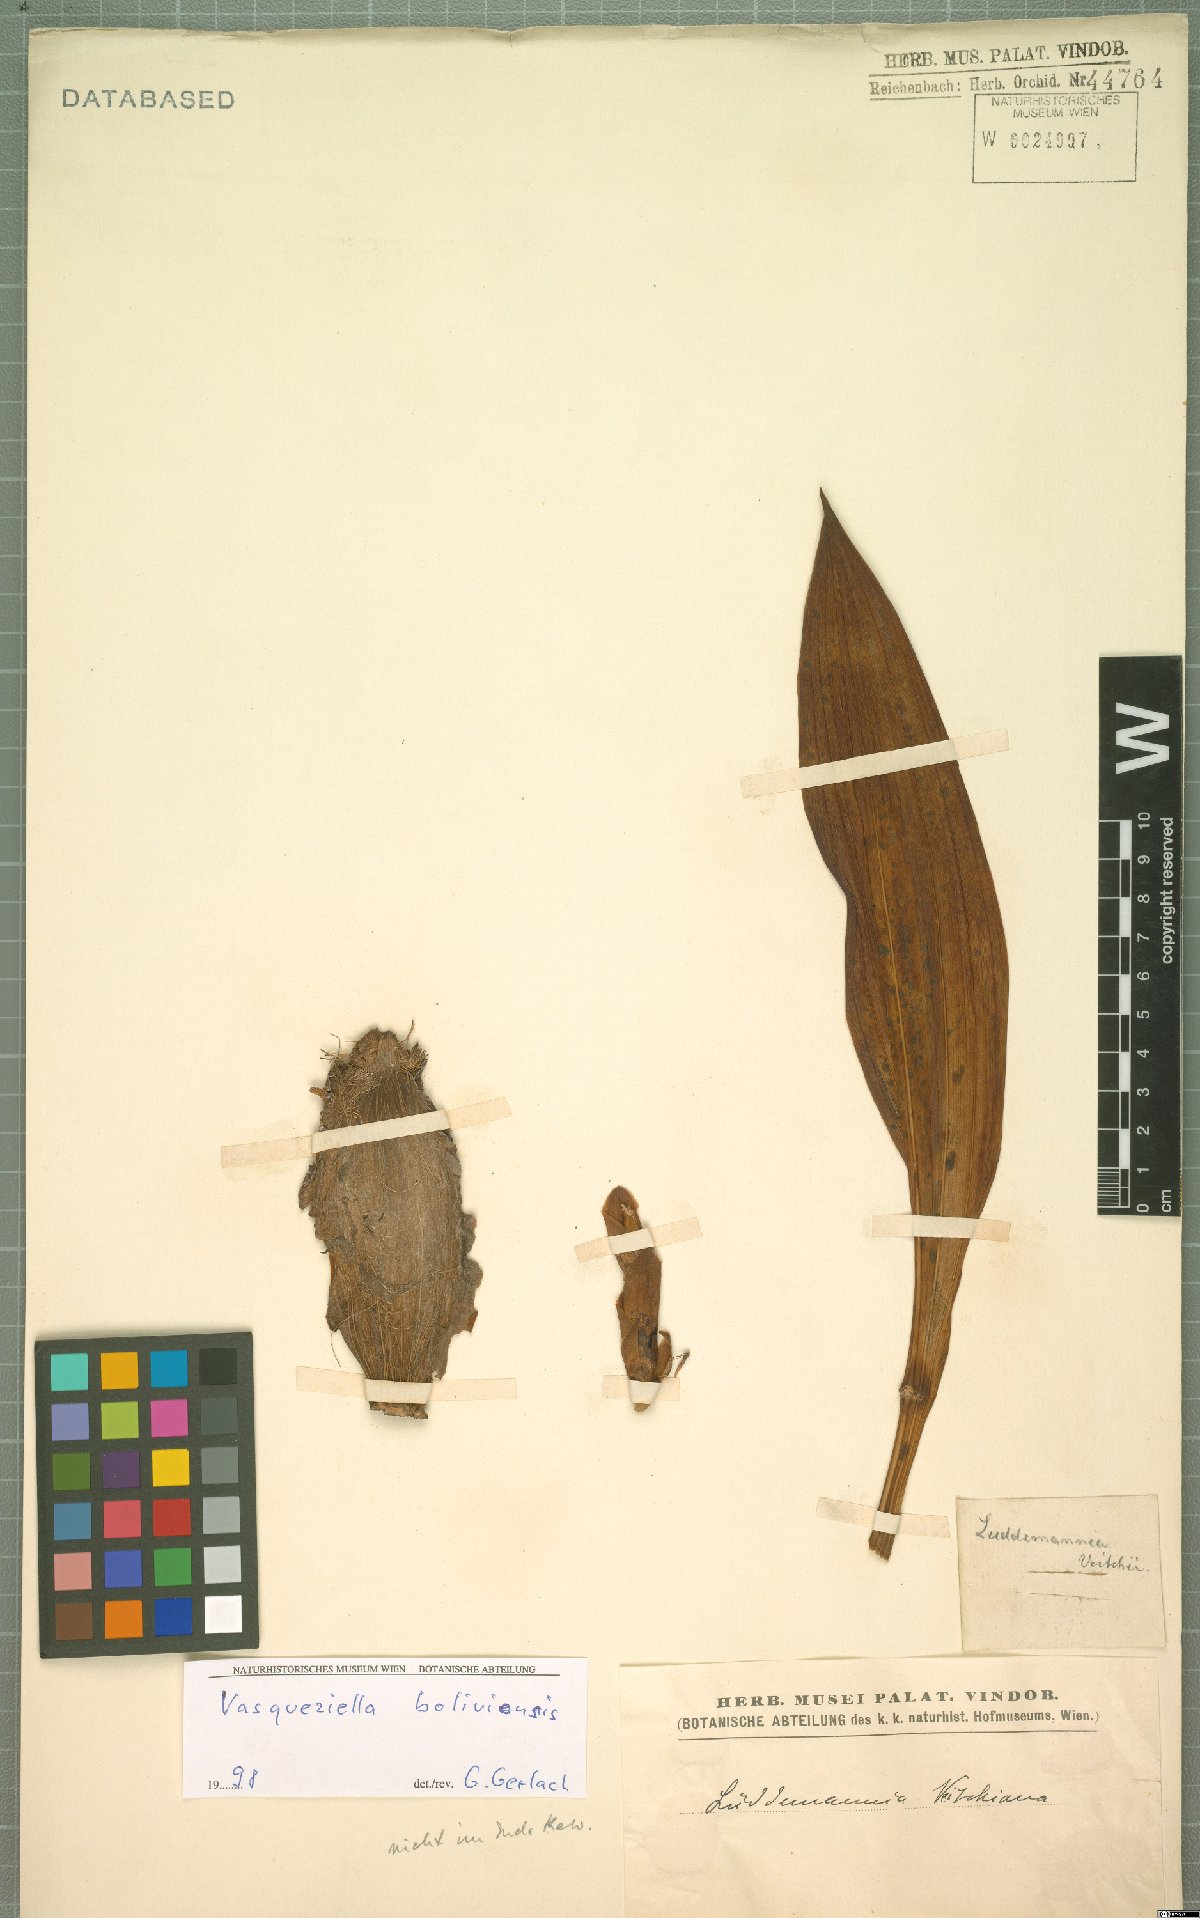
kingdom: Plantae
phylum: Tracheophyta
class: Liliopsida
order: Asparagales
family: Orchidaceae
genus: Vasqueziella
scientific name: Vasqueziella boliviana
